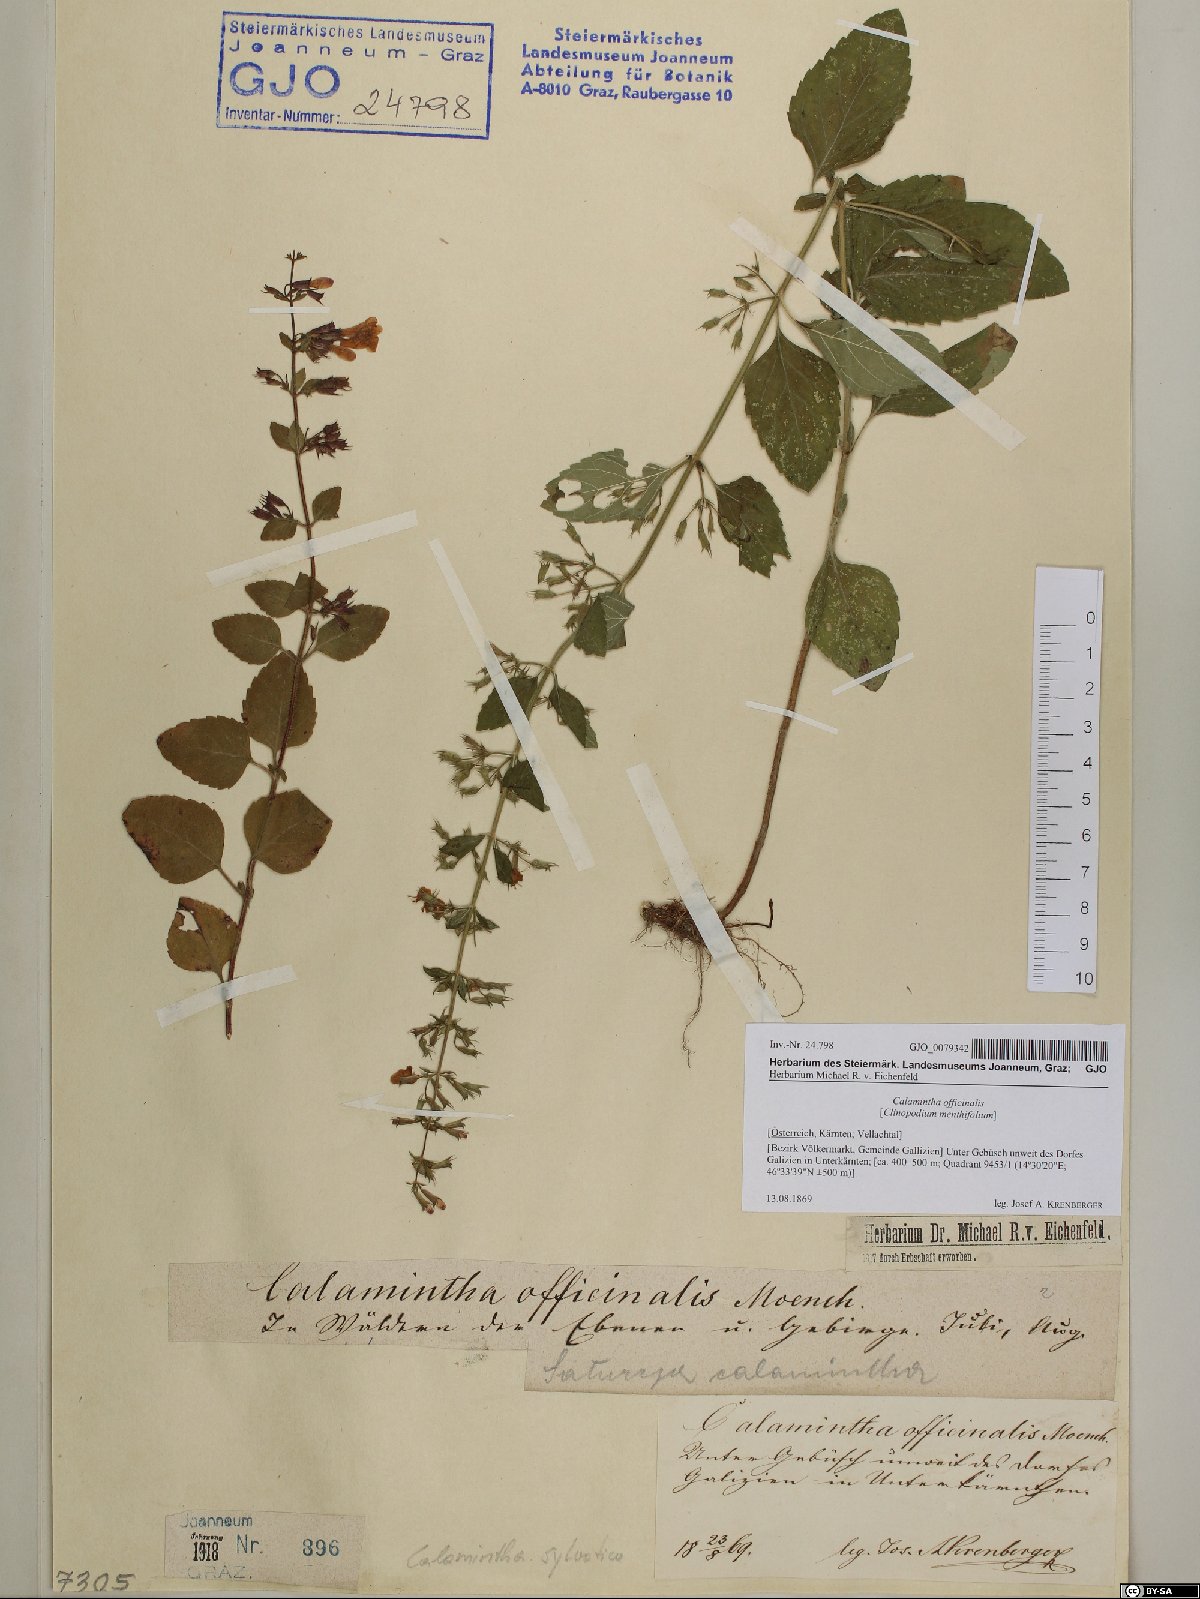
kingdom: Plantae
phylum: Tracheophyta
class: Magnoliopsida
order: Lamiales
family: Lamiaceae
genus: Clinopodium
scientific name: Clinopodium menthifolium
